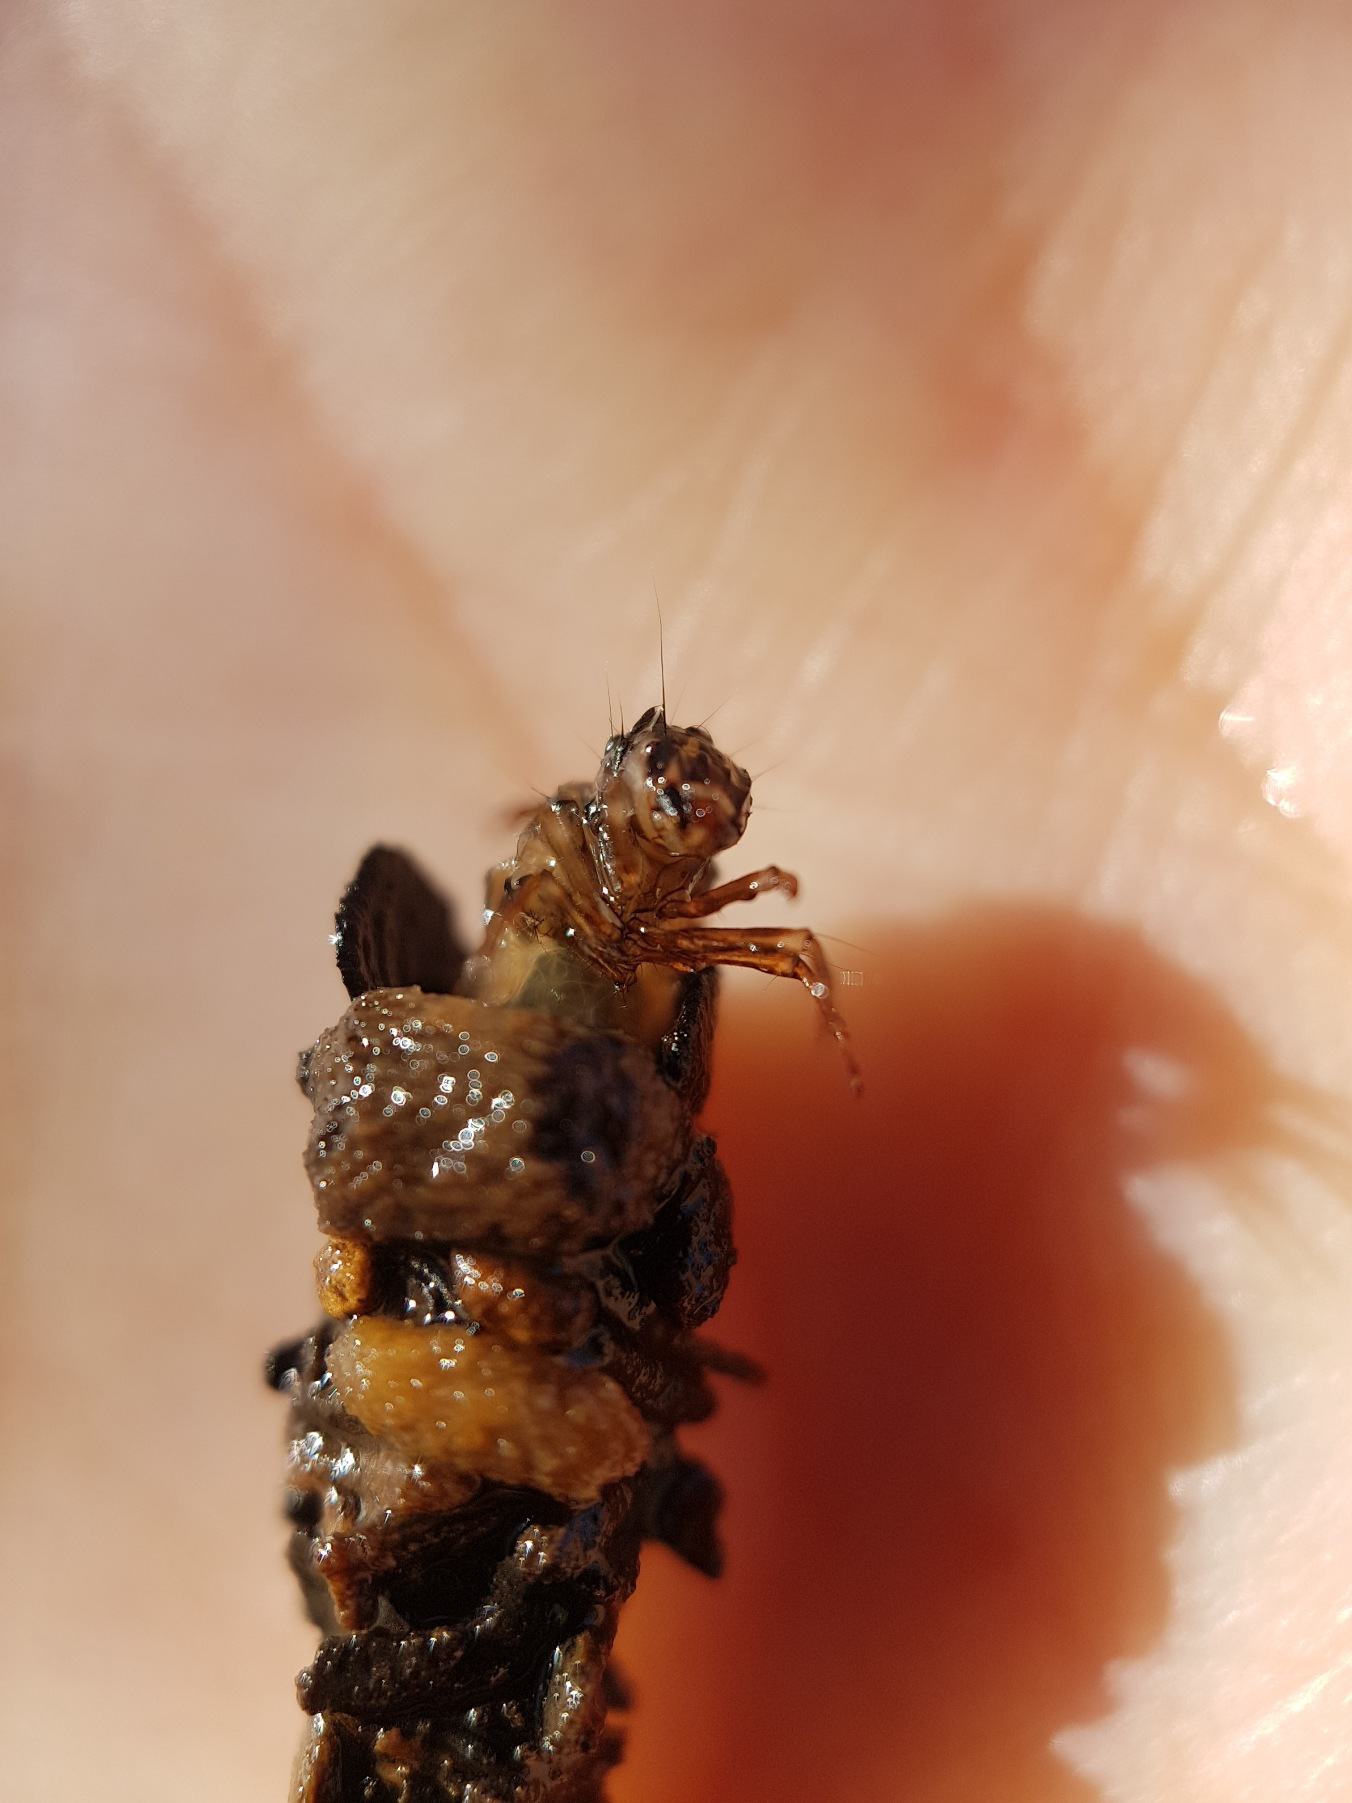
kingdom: Animalia
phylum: Arthropoda
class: Insecta
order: Trichoptera
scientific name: Trichoptera
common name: Vårfluer
